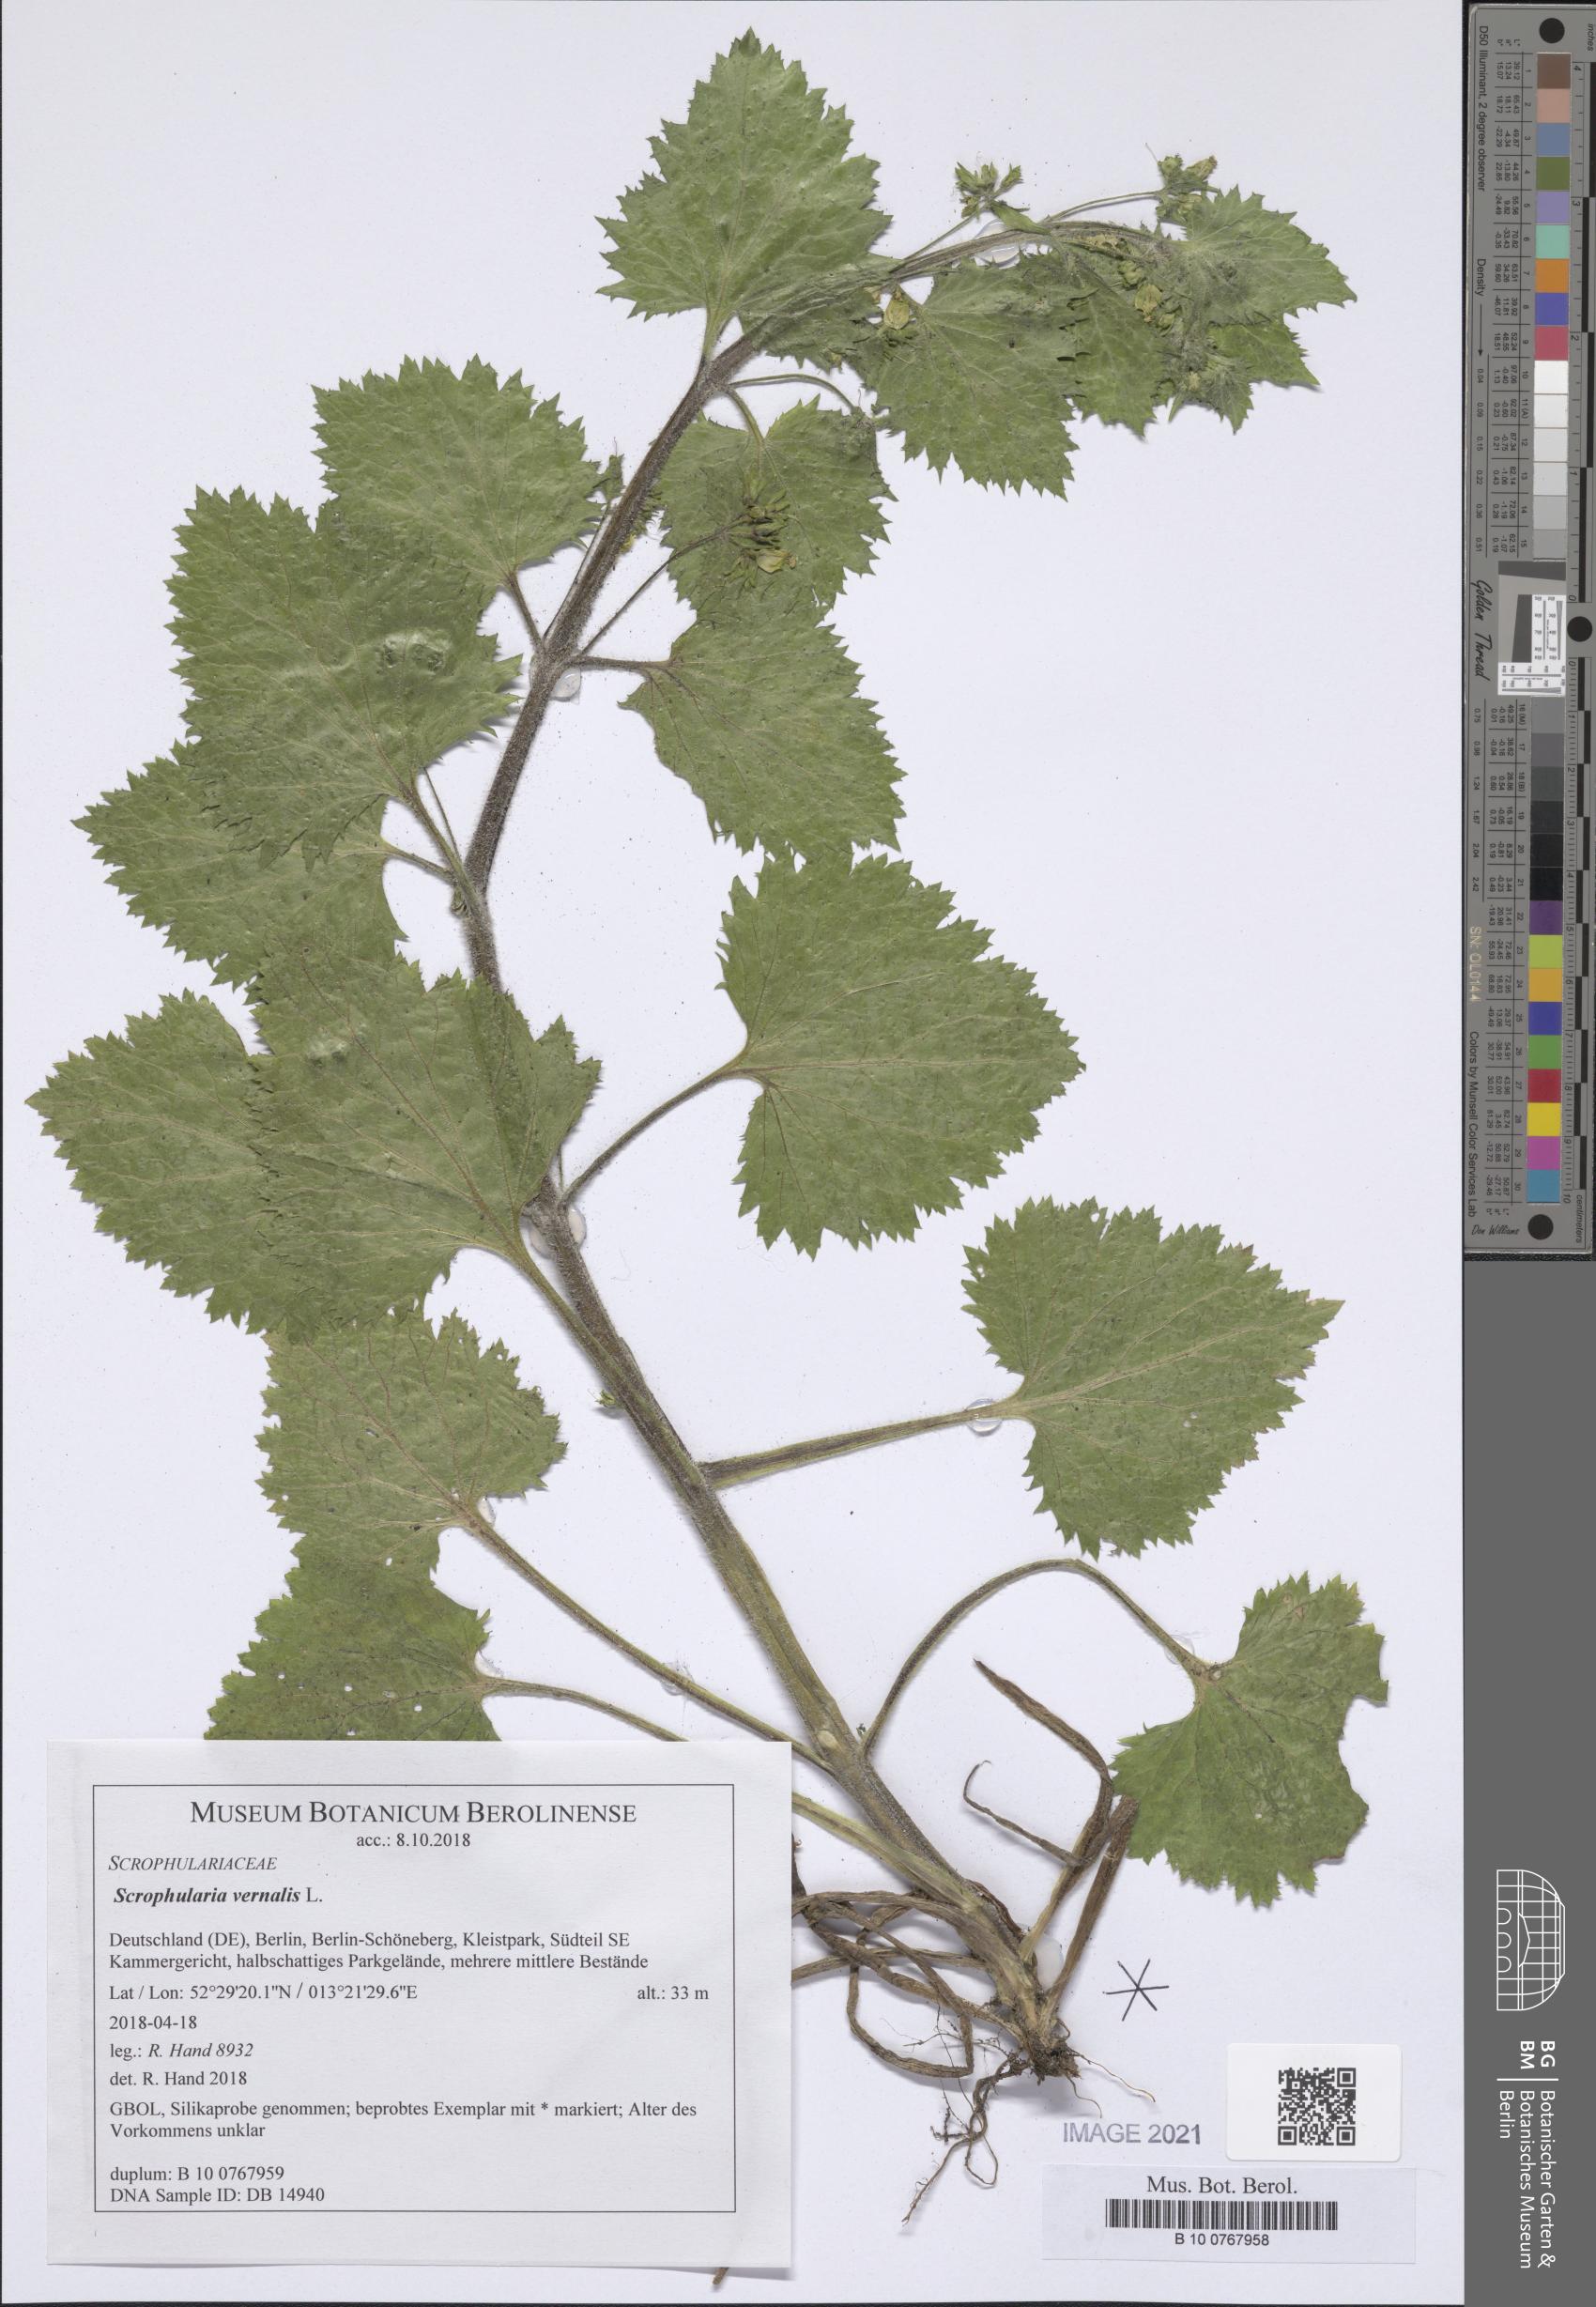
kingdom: Plantae
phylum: Tracheophyta
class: Magnoliopsida
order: Lamiales
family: Scrophulariaceae
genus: Scrophularia
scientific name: Scrophularia vernalis
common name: Yellow figwort
